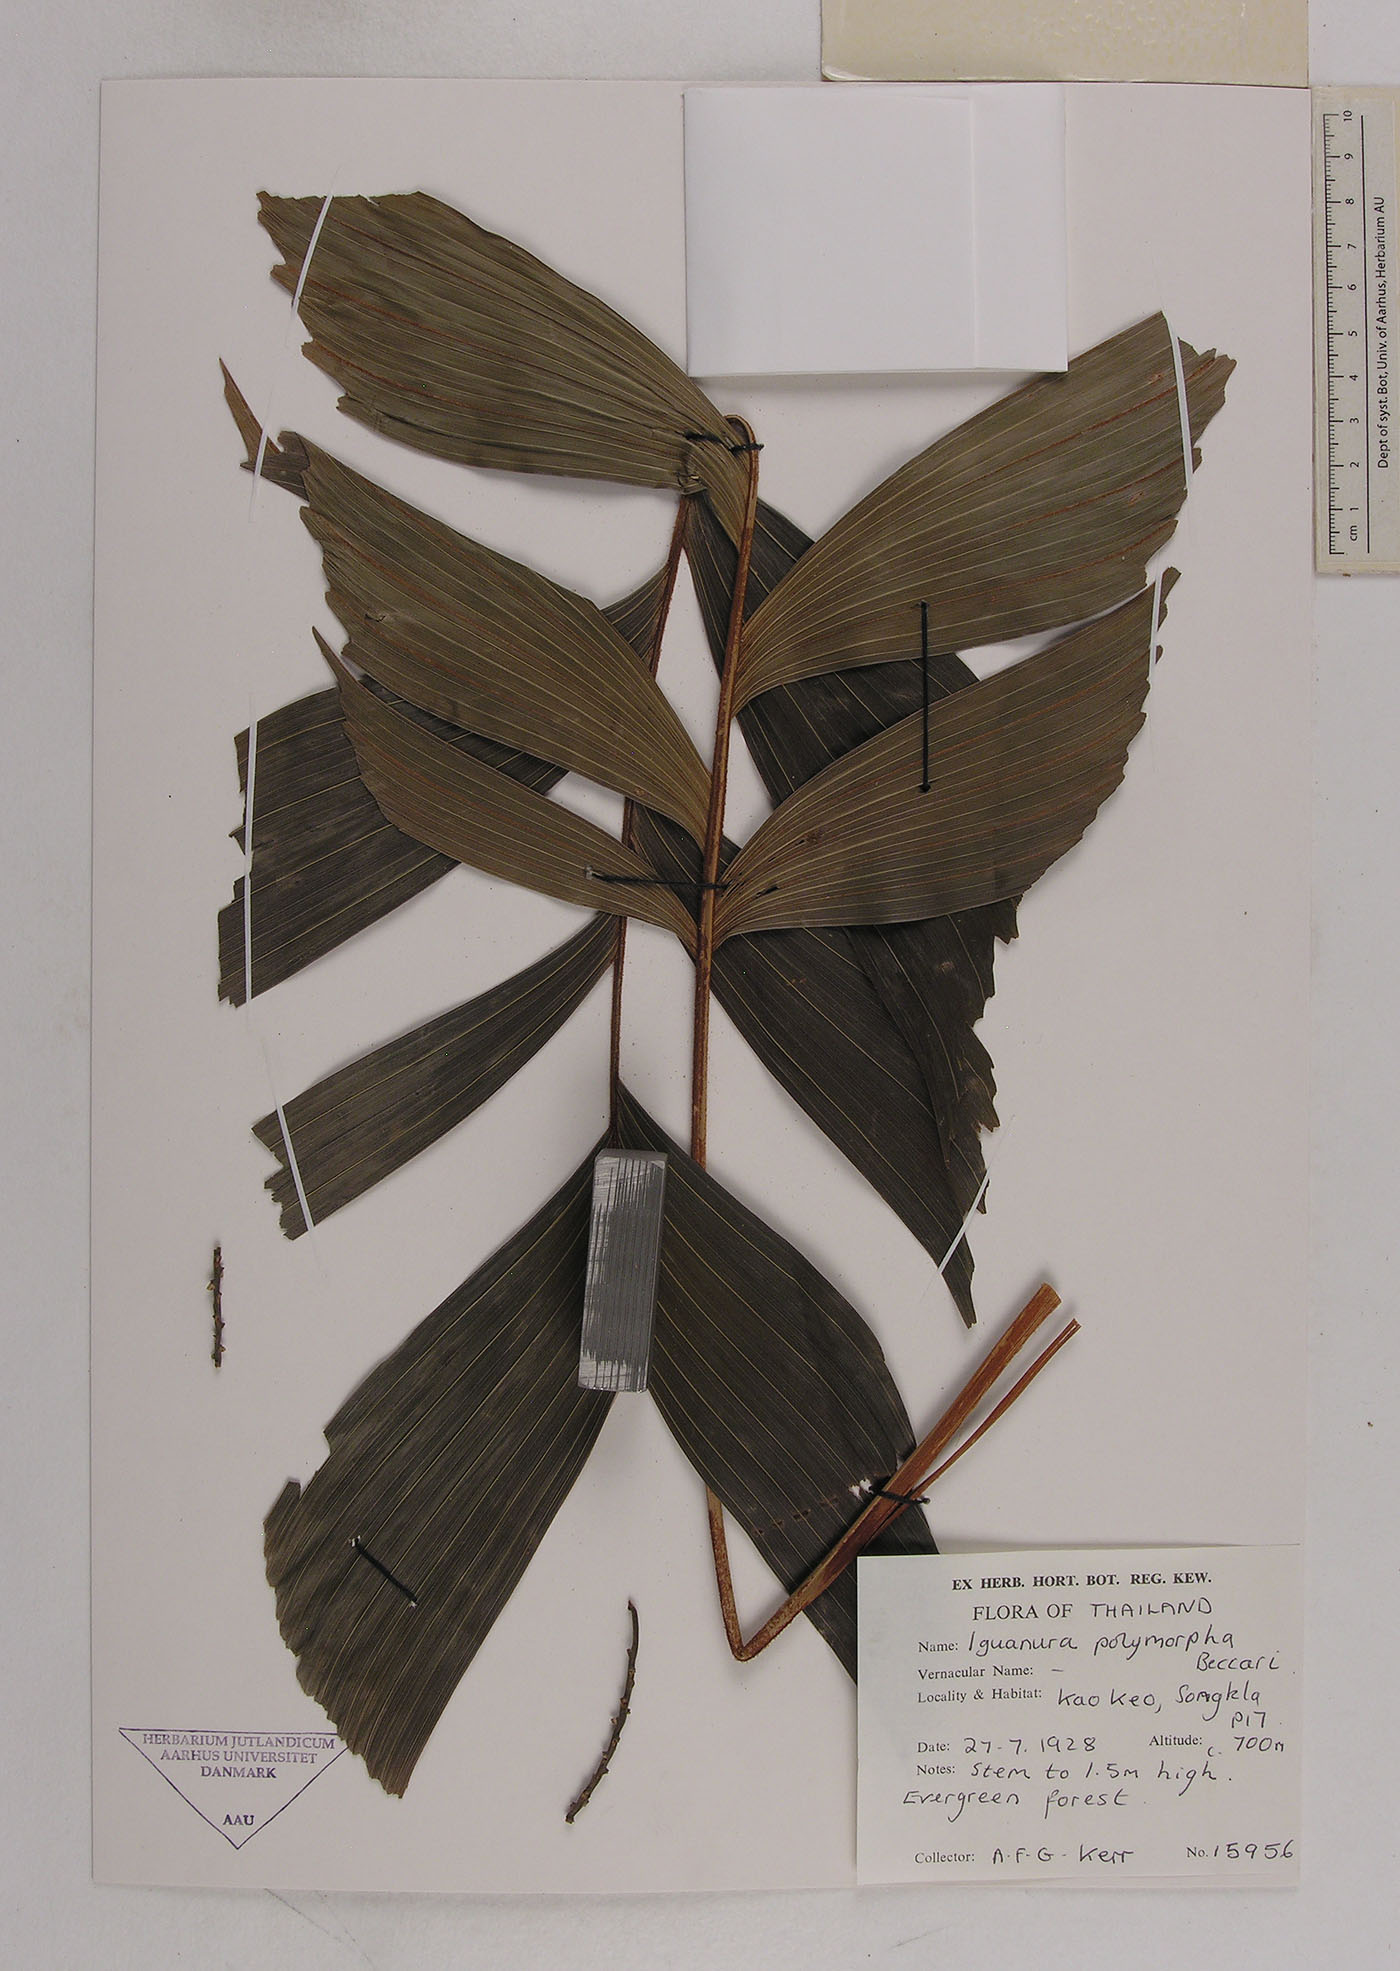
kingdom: Plantae
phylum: Tracheophyta
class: Liliopsida
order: Arecales
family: Arecaceae
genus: Iguanura
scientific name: Iguanura polymorpha
